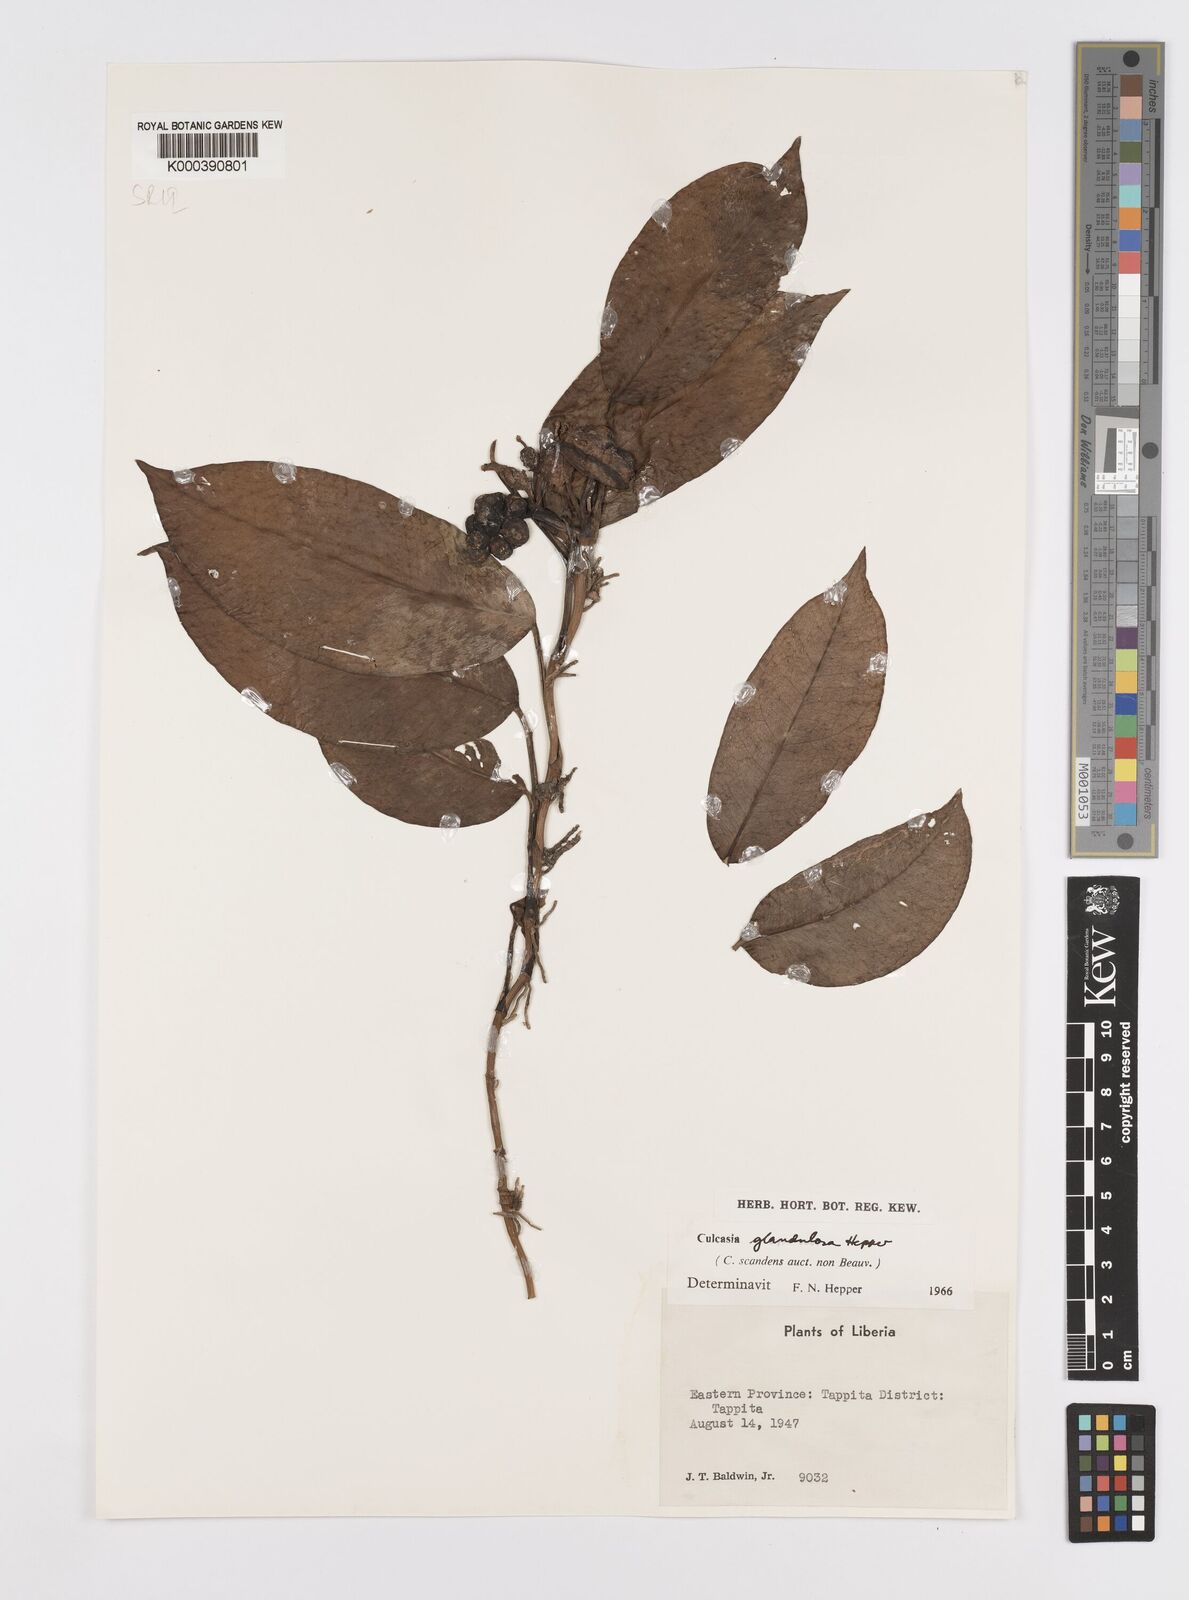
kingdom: Plantae
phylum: Tracheophyta
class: Liliopsida
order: Alismatales
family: Araceae
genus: Culcasia
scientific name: Culcasia glandulosa
